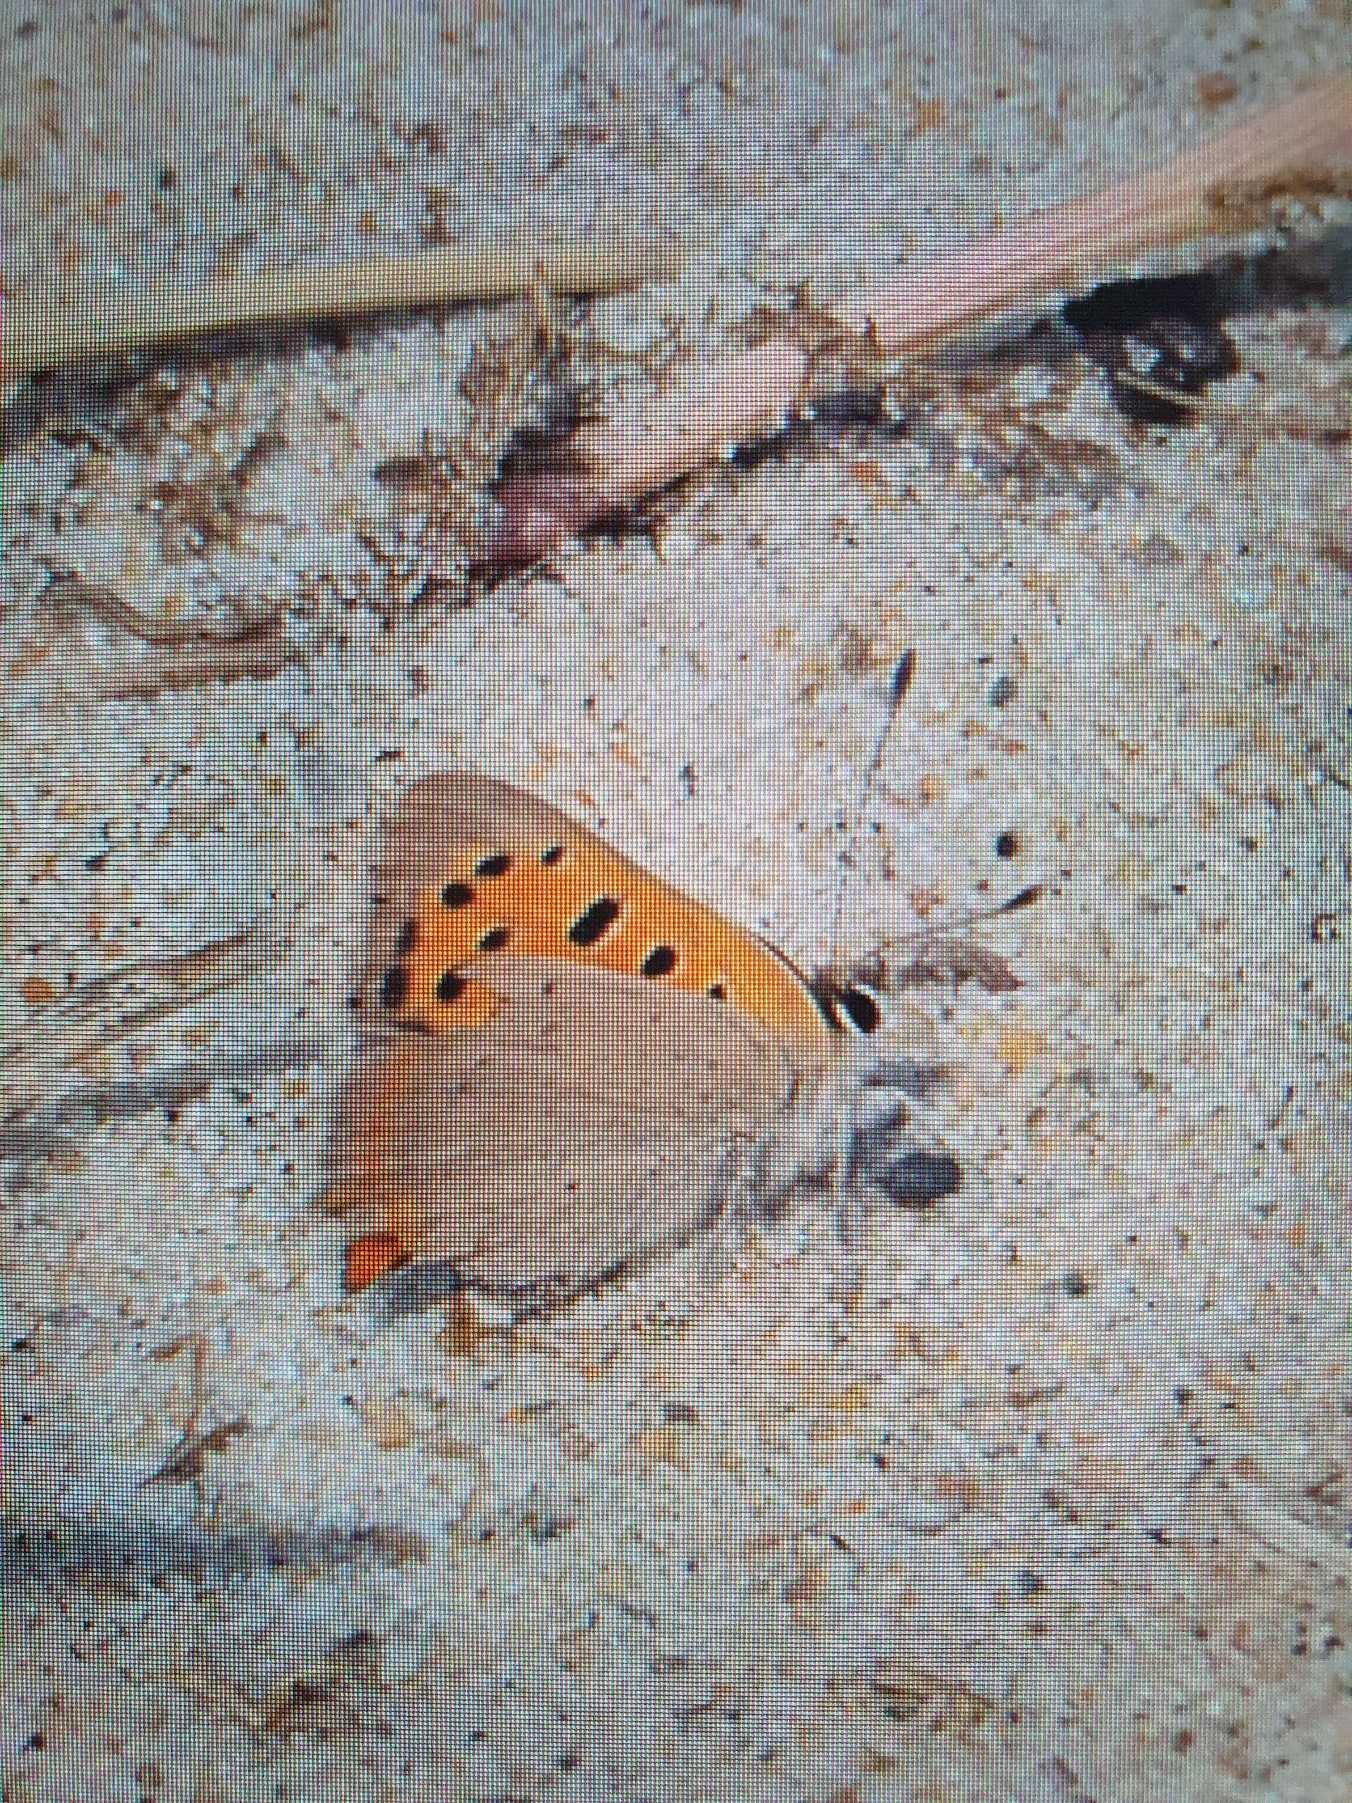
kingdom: Animalia
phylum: Arthropoda
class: Insecta
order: Lepidoptera
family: Lycaenidae
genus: Lycaena
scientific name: Lycaena phlaeas
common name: Lille ildfugl
